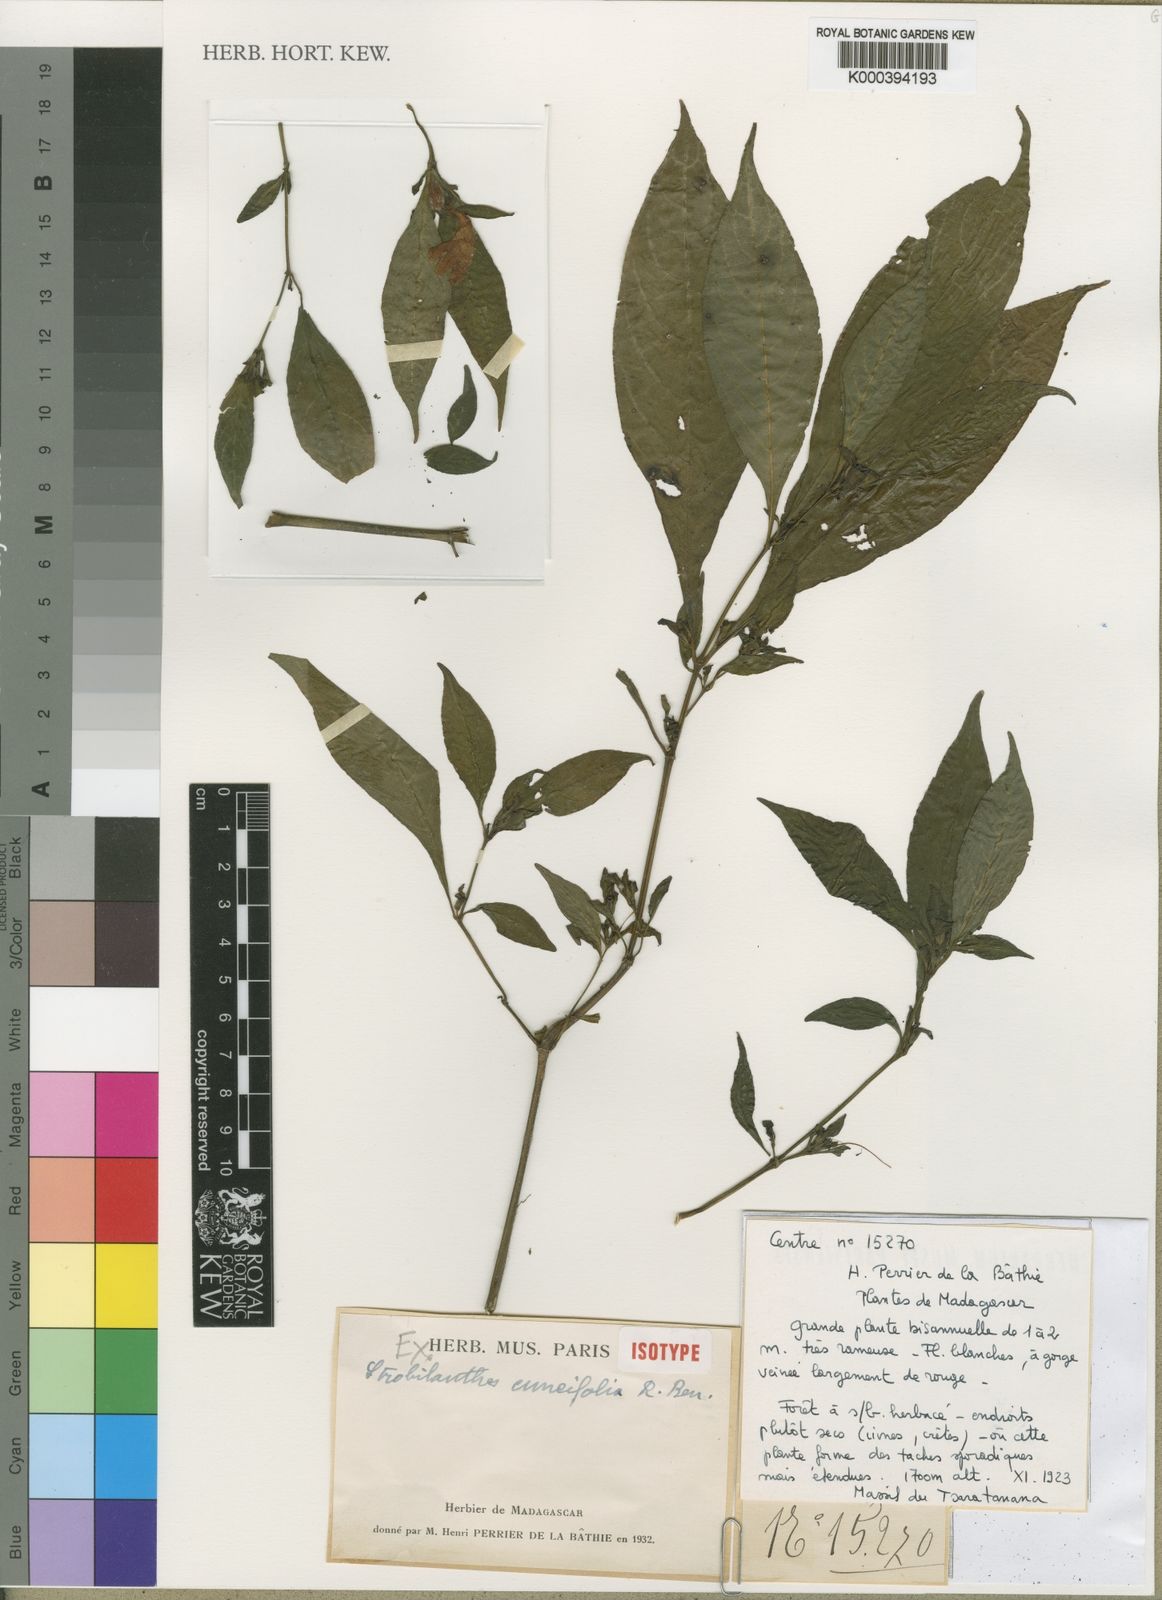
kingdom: Plantae
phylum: Tracheophyta
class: Magnoliopsida
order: Lamiales
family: Acanthaceae
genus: Acanthopale
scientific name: Acanthopale cuneifolia
